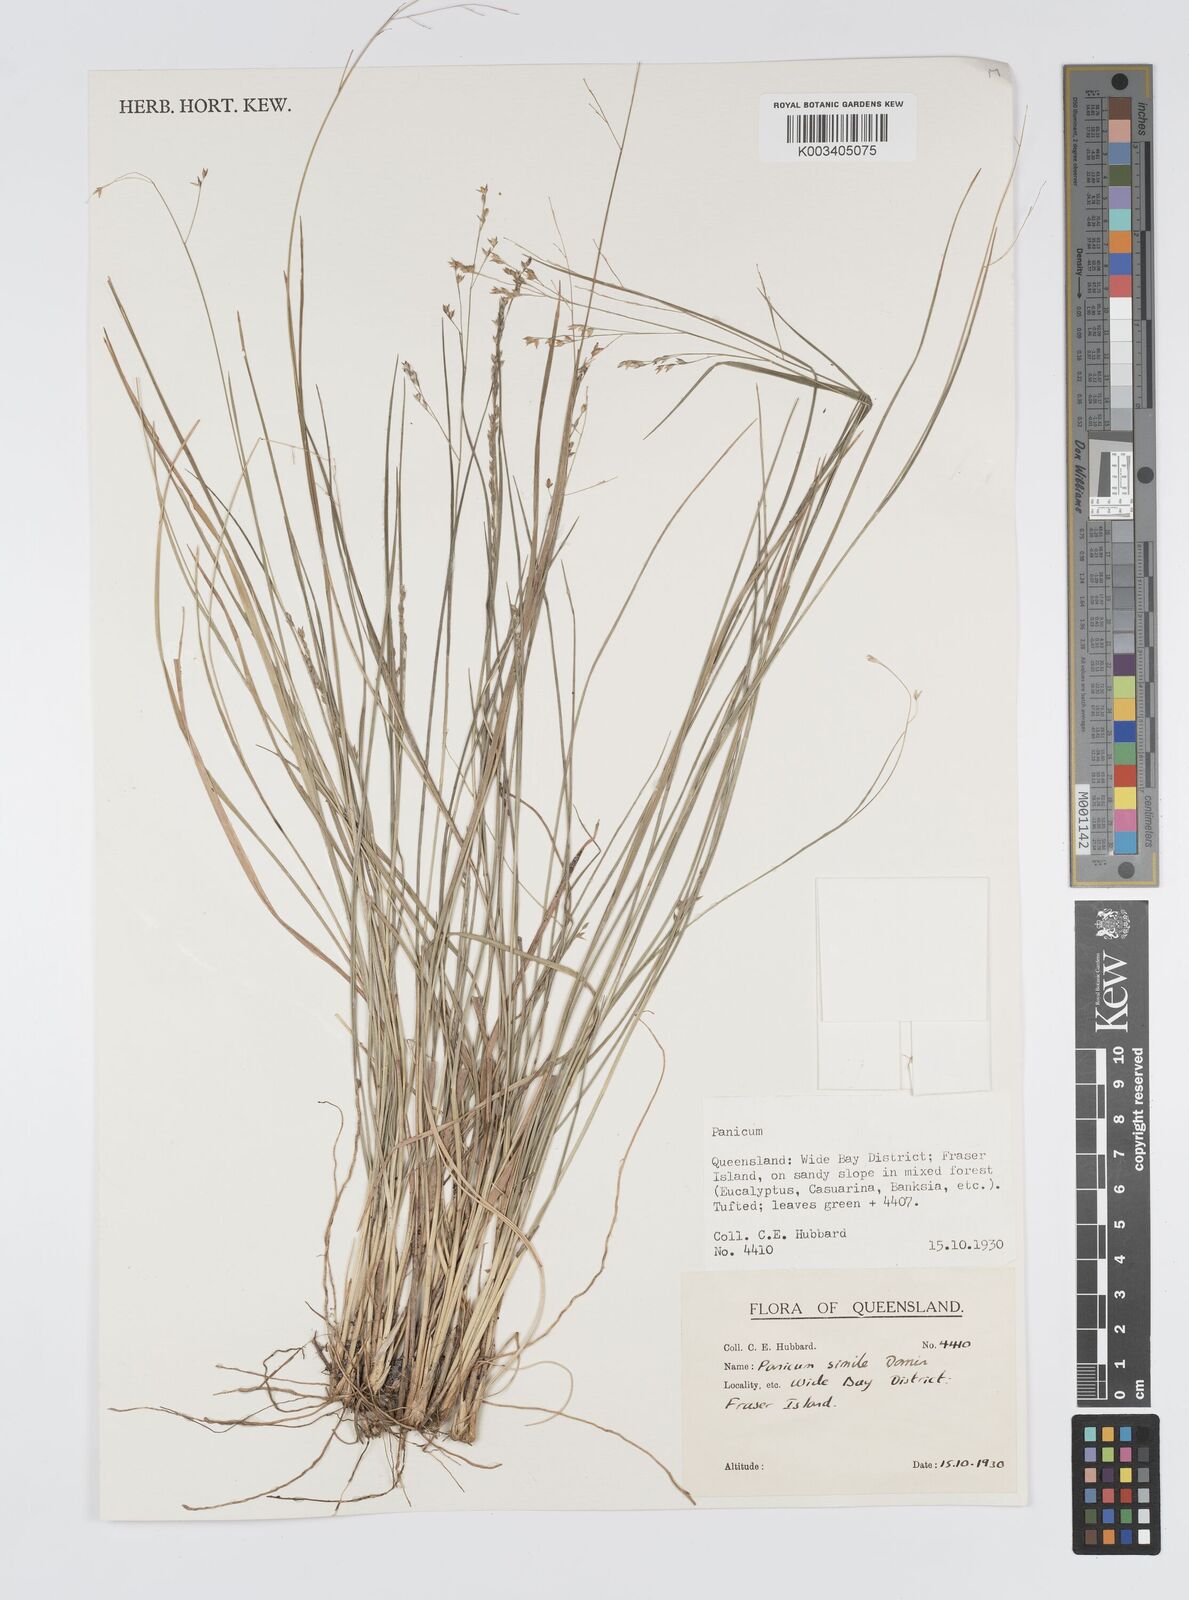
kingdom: Plantae
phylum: Tracheophyta
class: Liliopsida
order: Poales
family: Poaceae
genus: Panicum
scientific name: Panicum simile
